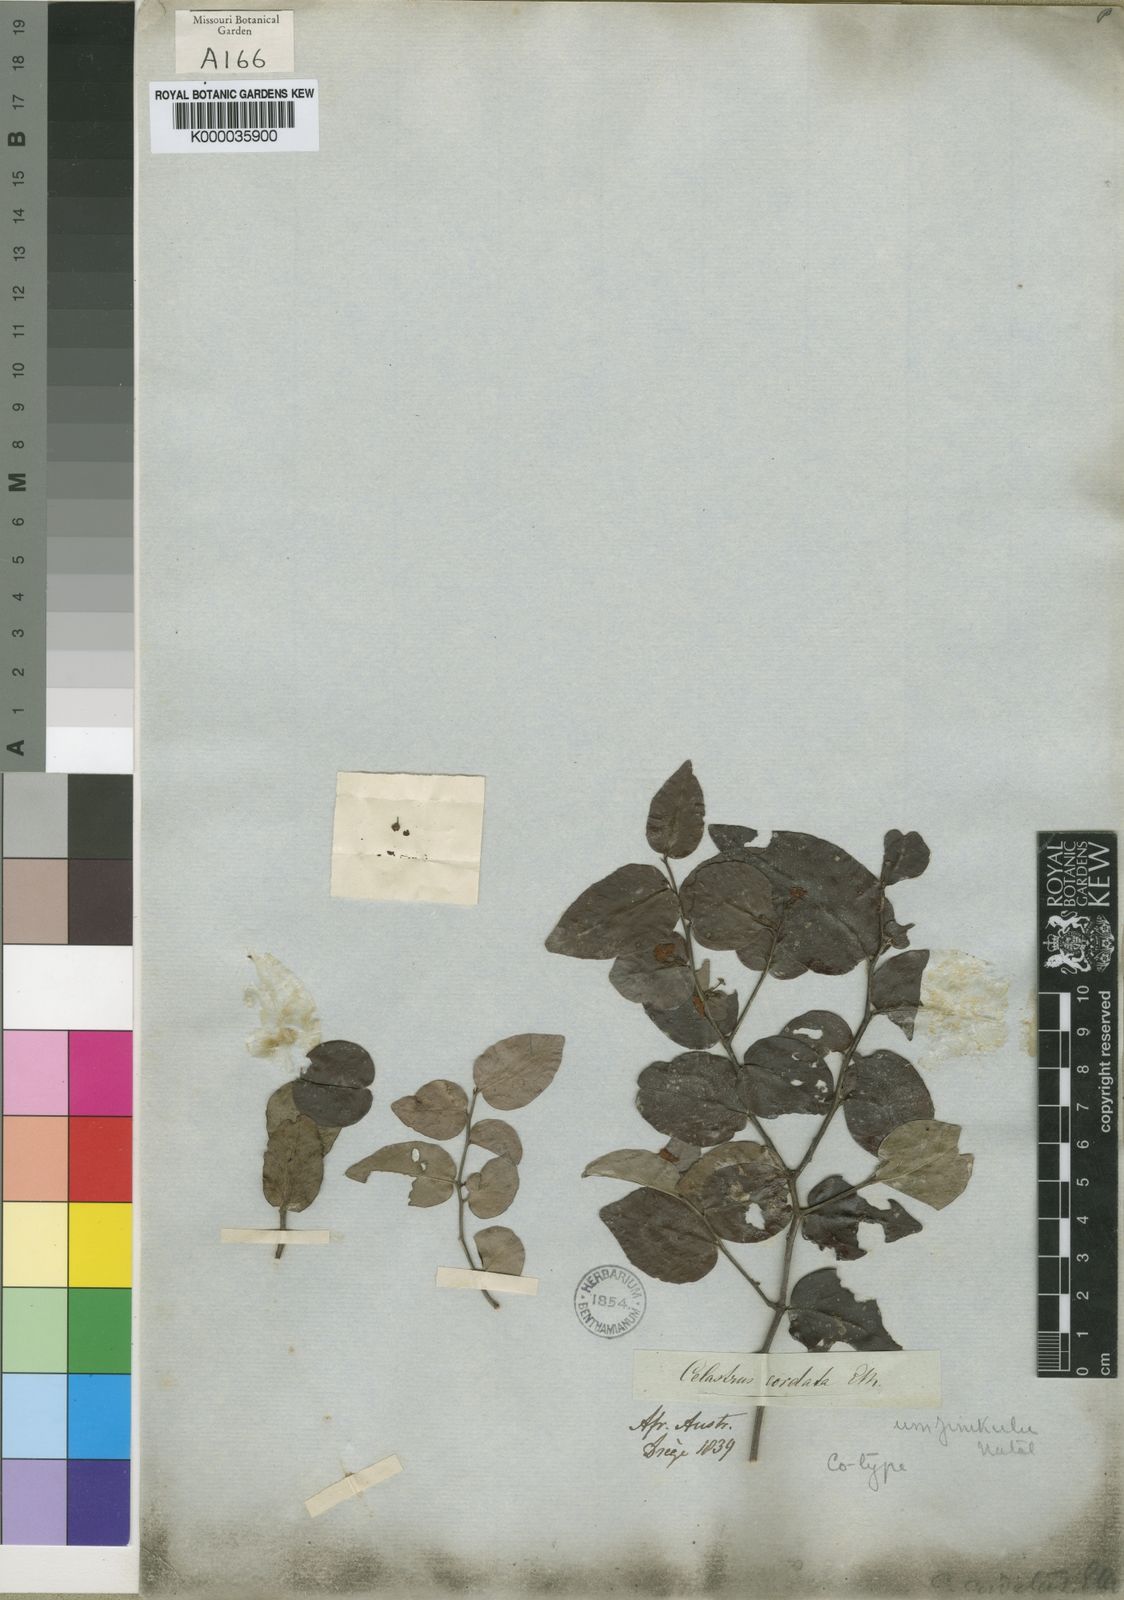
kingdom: Plantae
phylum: Tracheophyta
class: Magnoliopsida
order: Celastrales
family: Celastraceae
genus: Gymnosporia
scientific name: Gymnosporia acuminata
